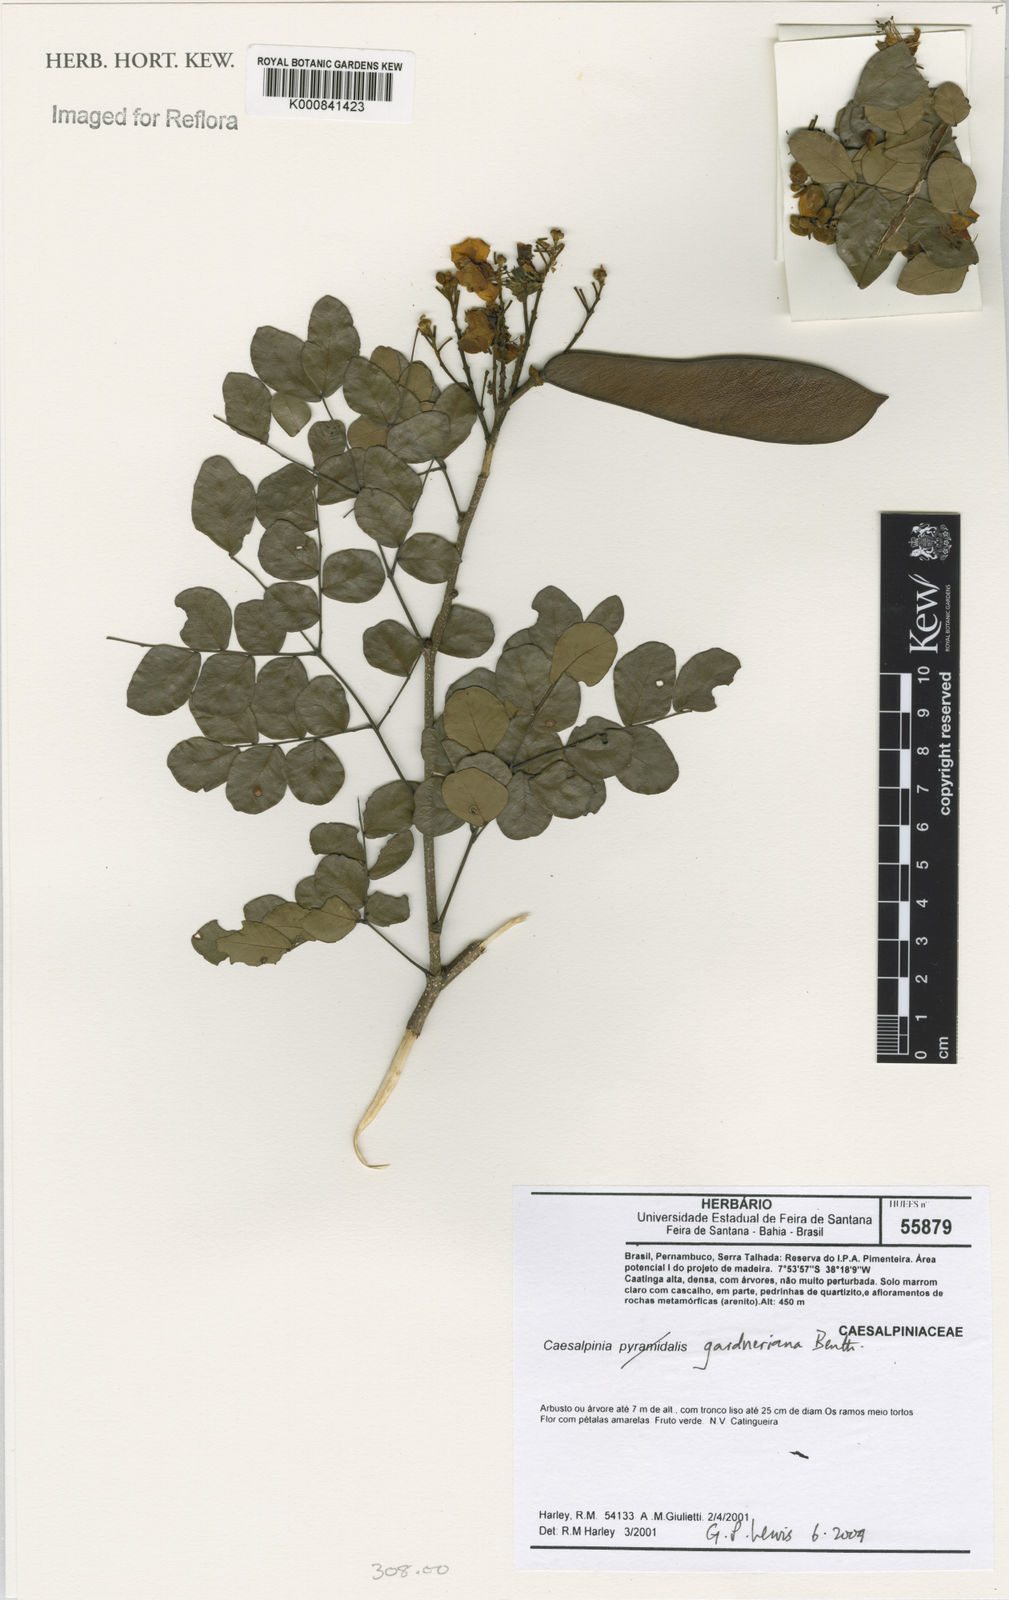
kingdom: Plantae
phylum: Tracheophyta
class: Magnoliopsida
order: Fabales
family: Fabaceae
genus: Cenostigma
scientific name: Cenostigma nordestinum
